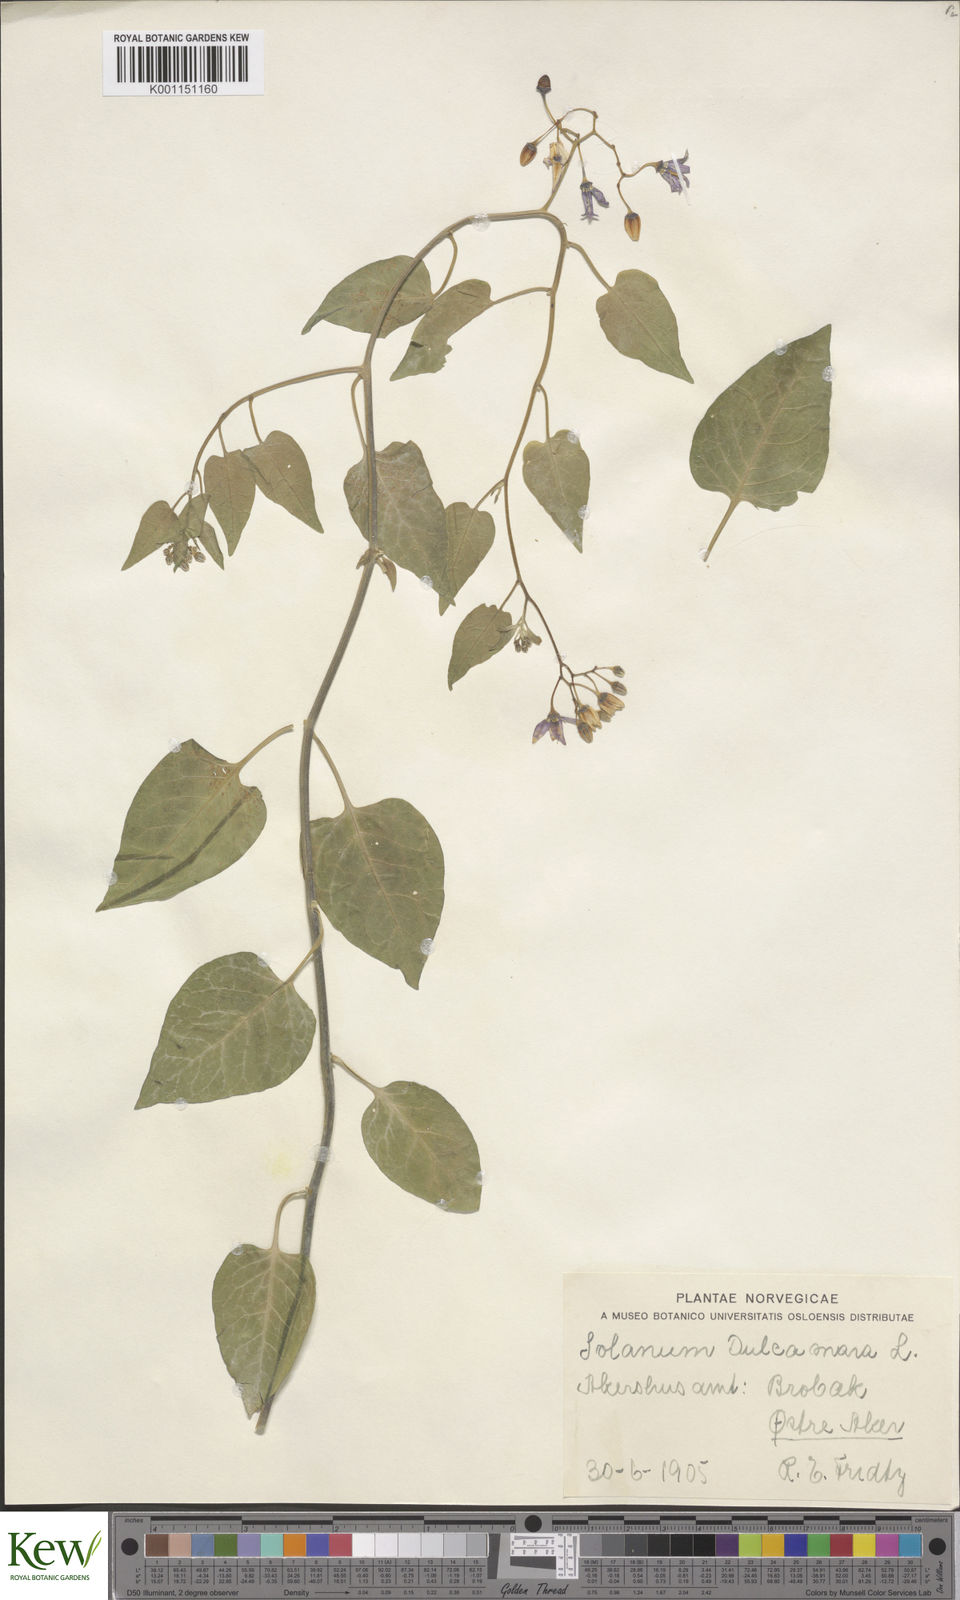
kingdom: Plantae
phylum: Tracheophyta
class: Magnoliopsida
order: Solanales
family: Solanaceae
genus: Solanum
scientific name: Solanum dulcamara
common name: Climbing nightshade
